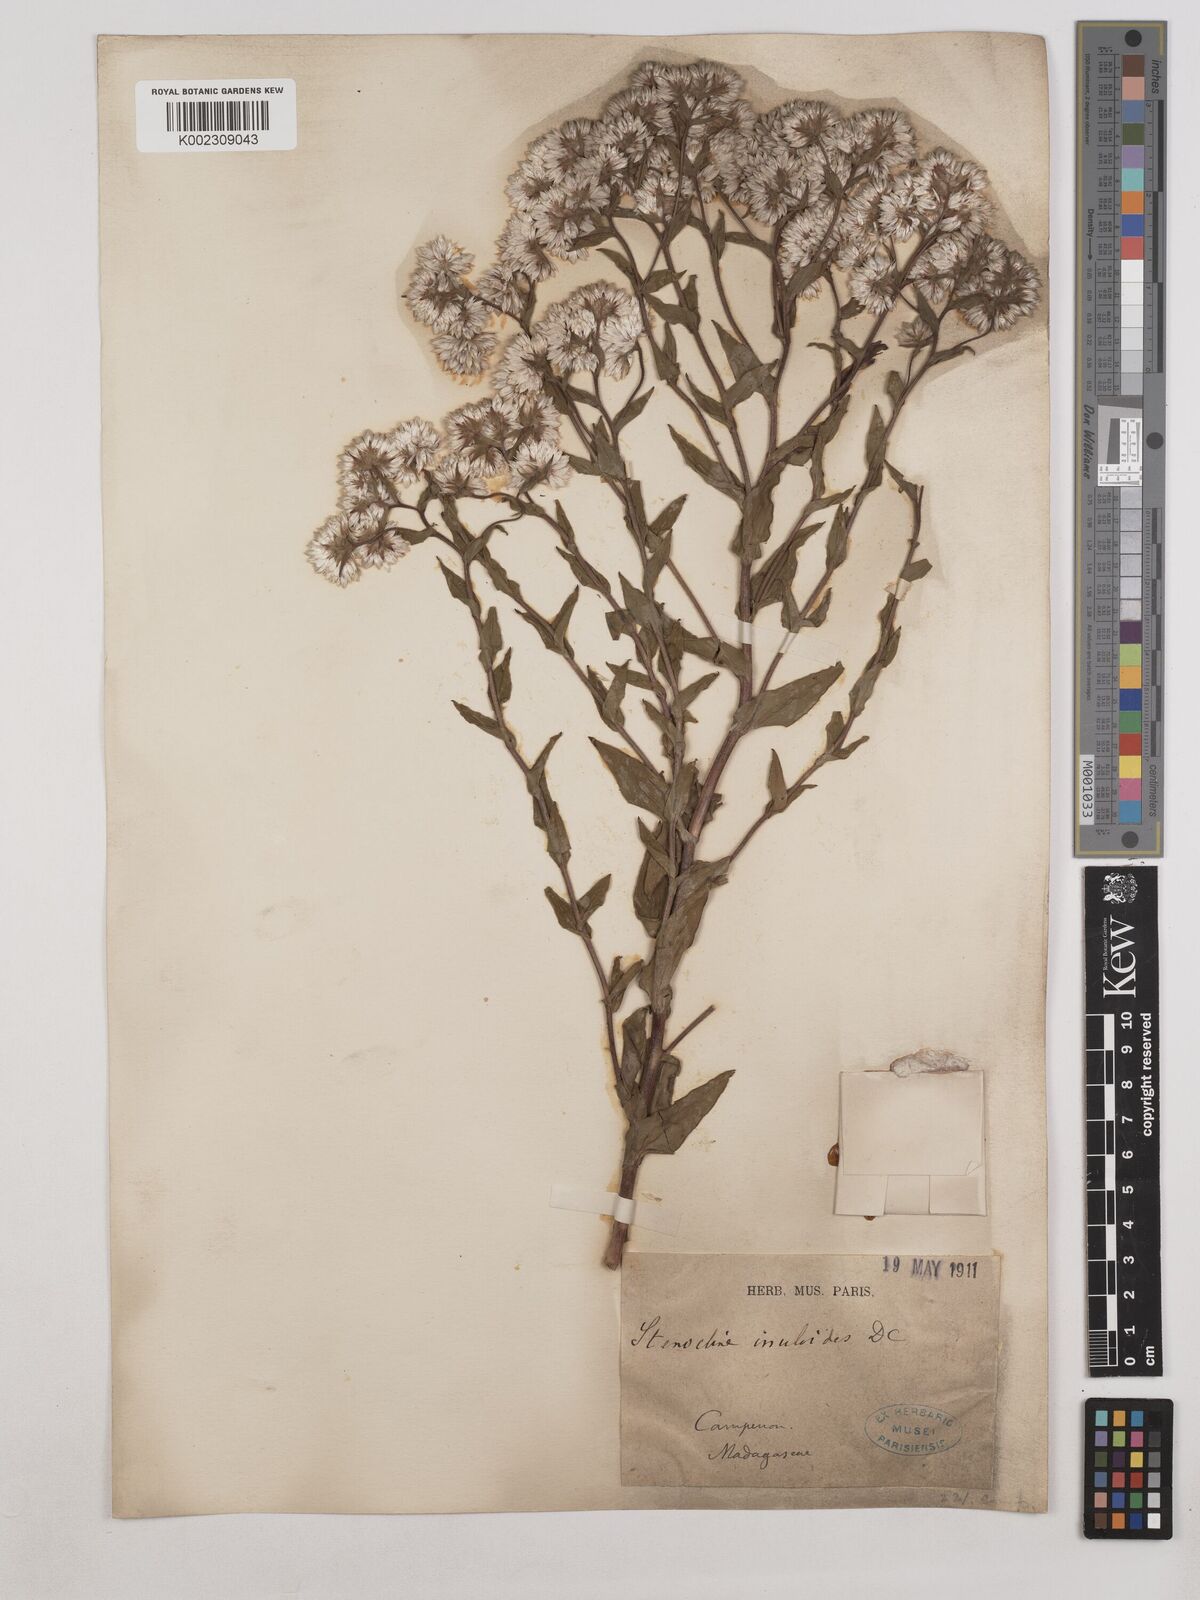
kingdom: Plantae
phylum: Tracheophyta
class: Magnoliopsida
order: Asterales
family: Asteraceae
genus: Stenocline
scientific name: Stenocline inuloides
